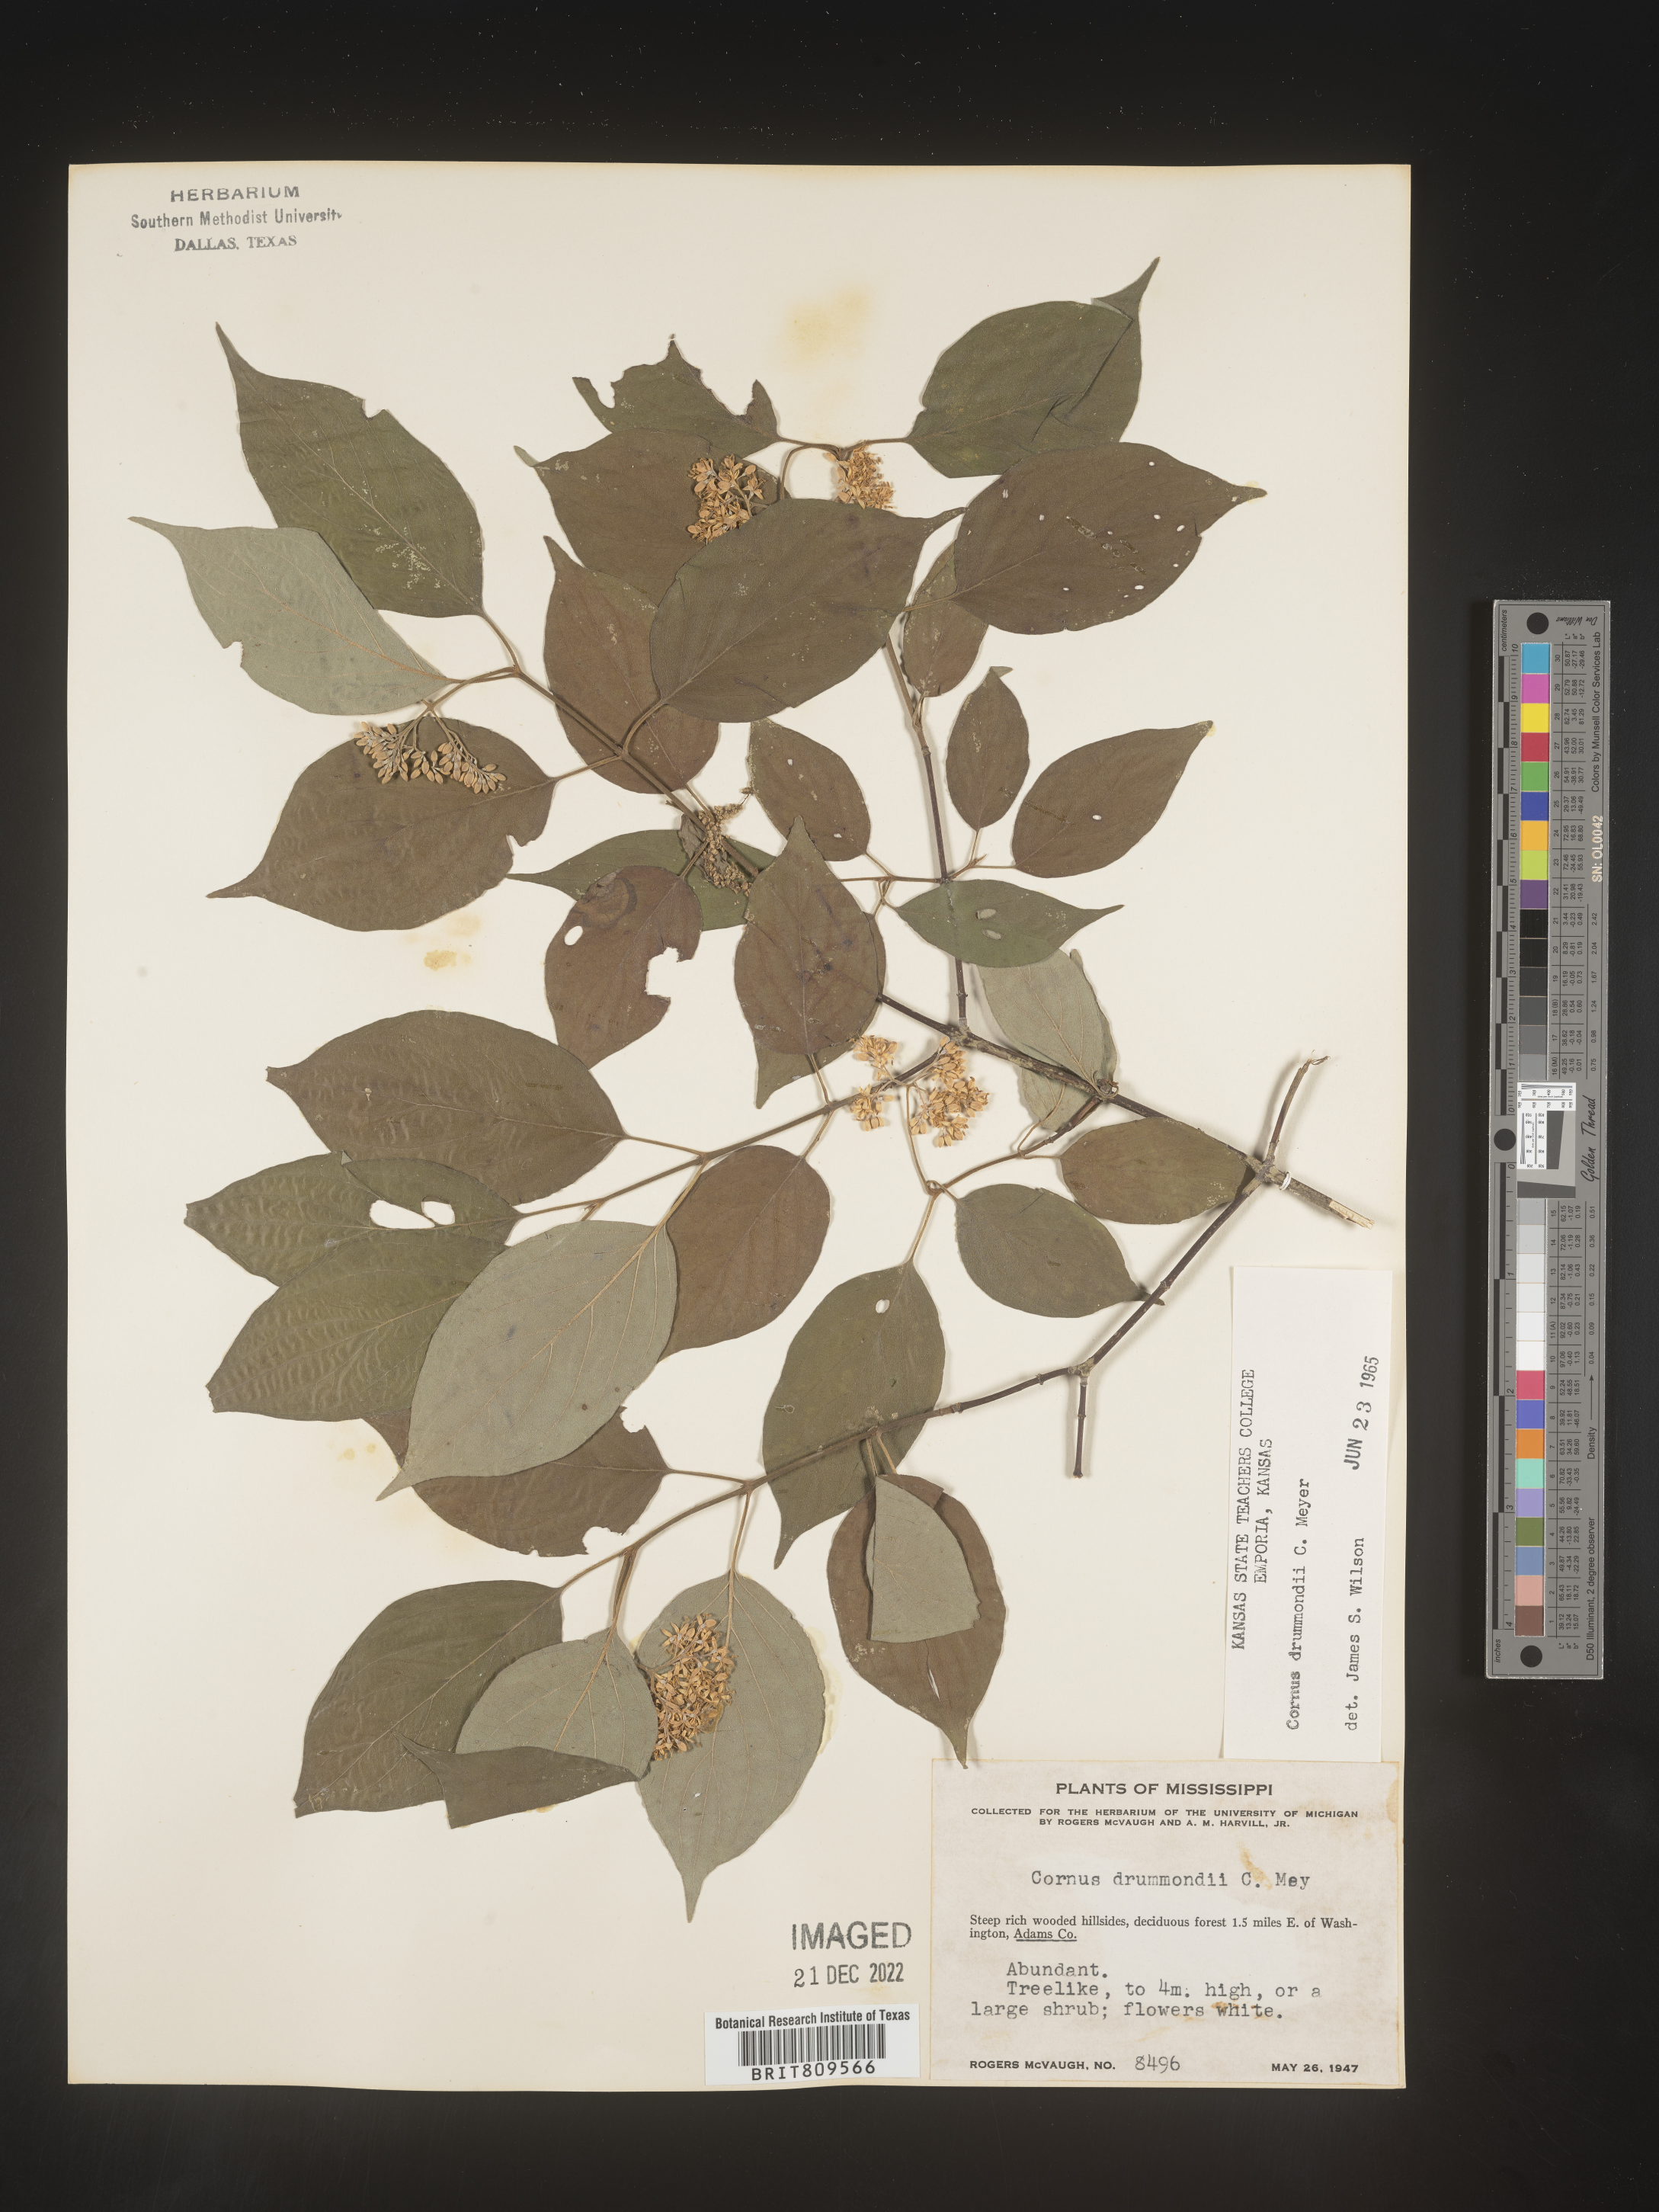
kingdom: Plantae
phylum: Tracheophyta
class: Magnoliopsida
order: Cornales
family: Cornaceae
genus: Cornus
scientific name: Cornus drummondii
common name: Rough-leaf dogwood
